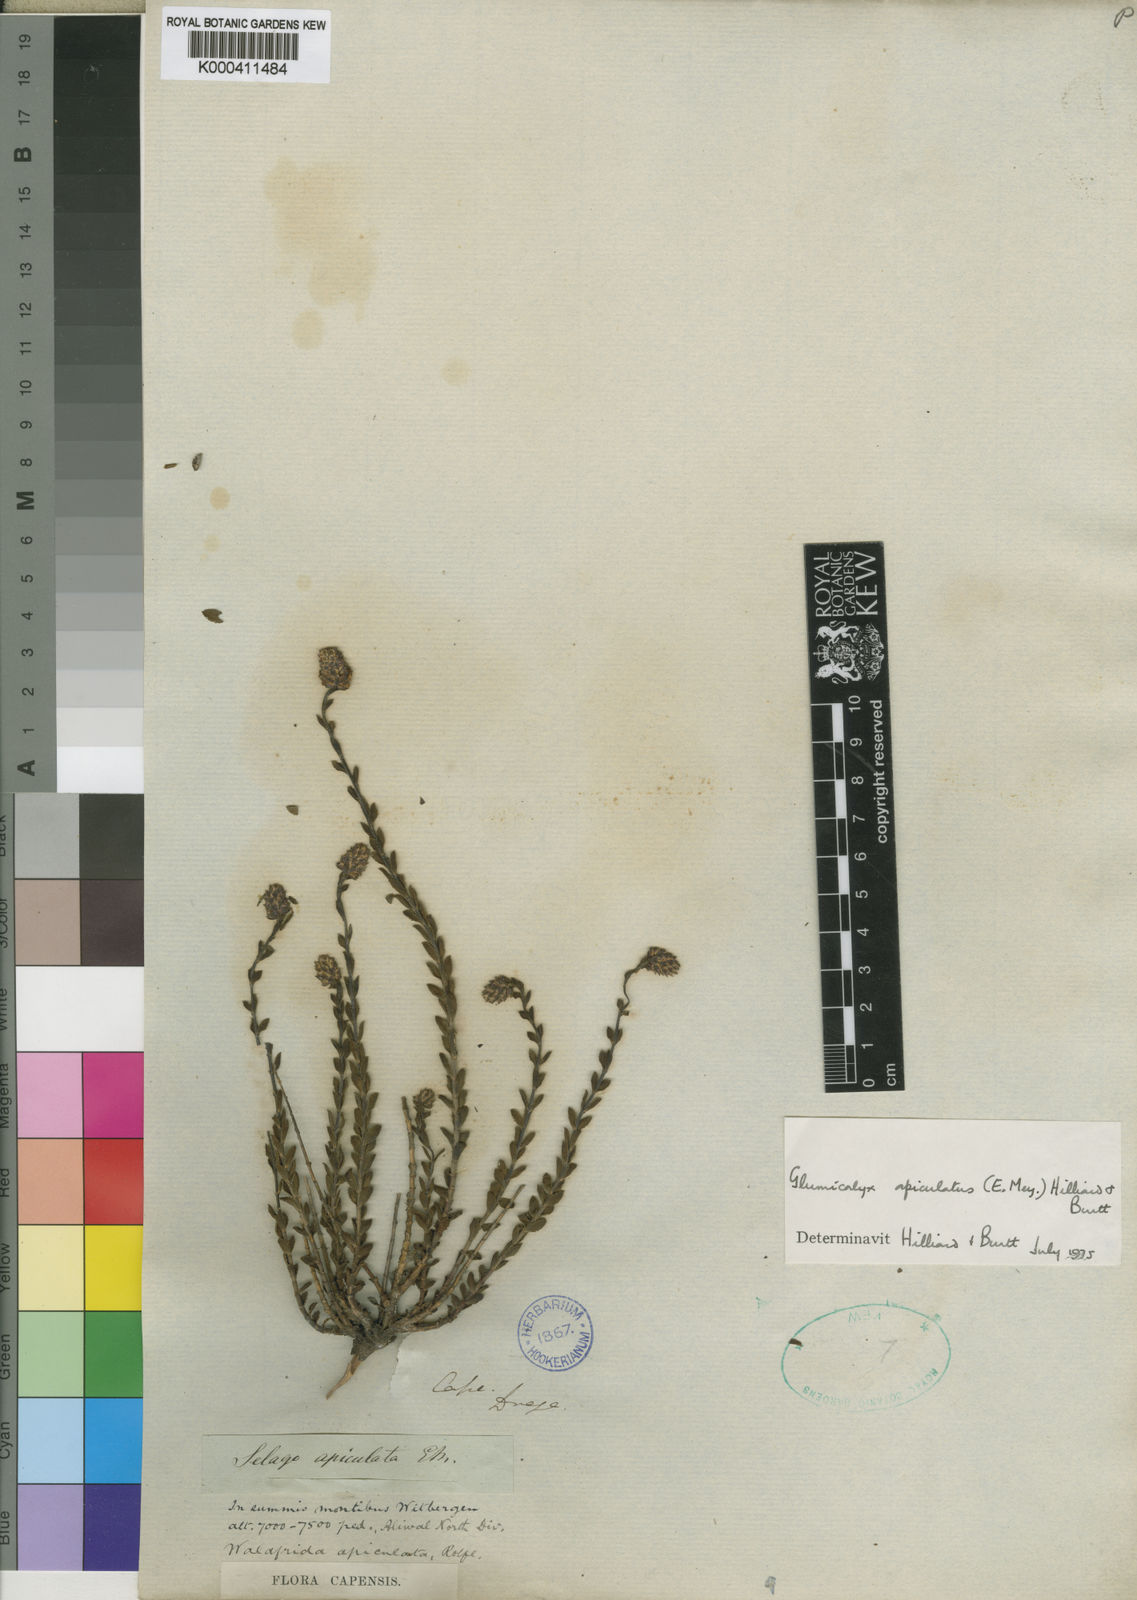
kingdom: Plantae
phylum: Tracheophyta
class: Magnoliopsida
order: Lamiales
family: Scrophulariaceae
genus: Glumicalyx
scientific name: Glumicalyx apiculatus
